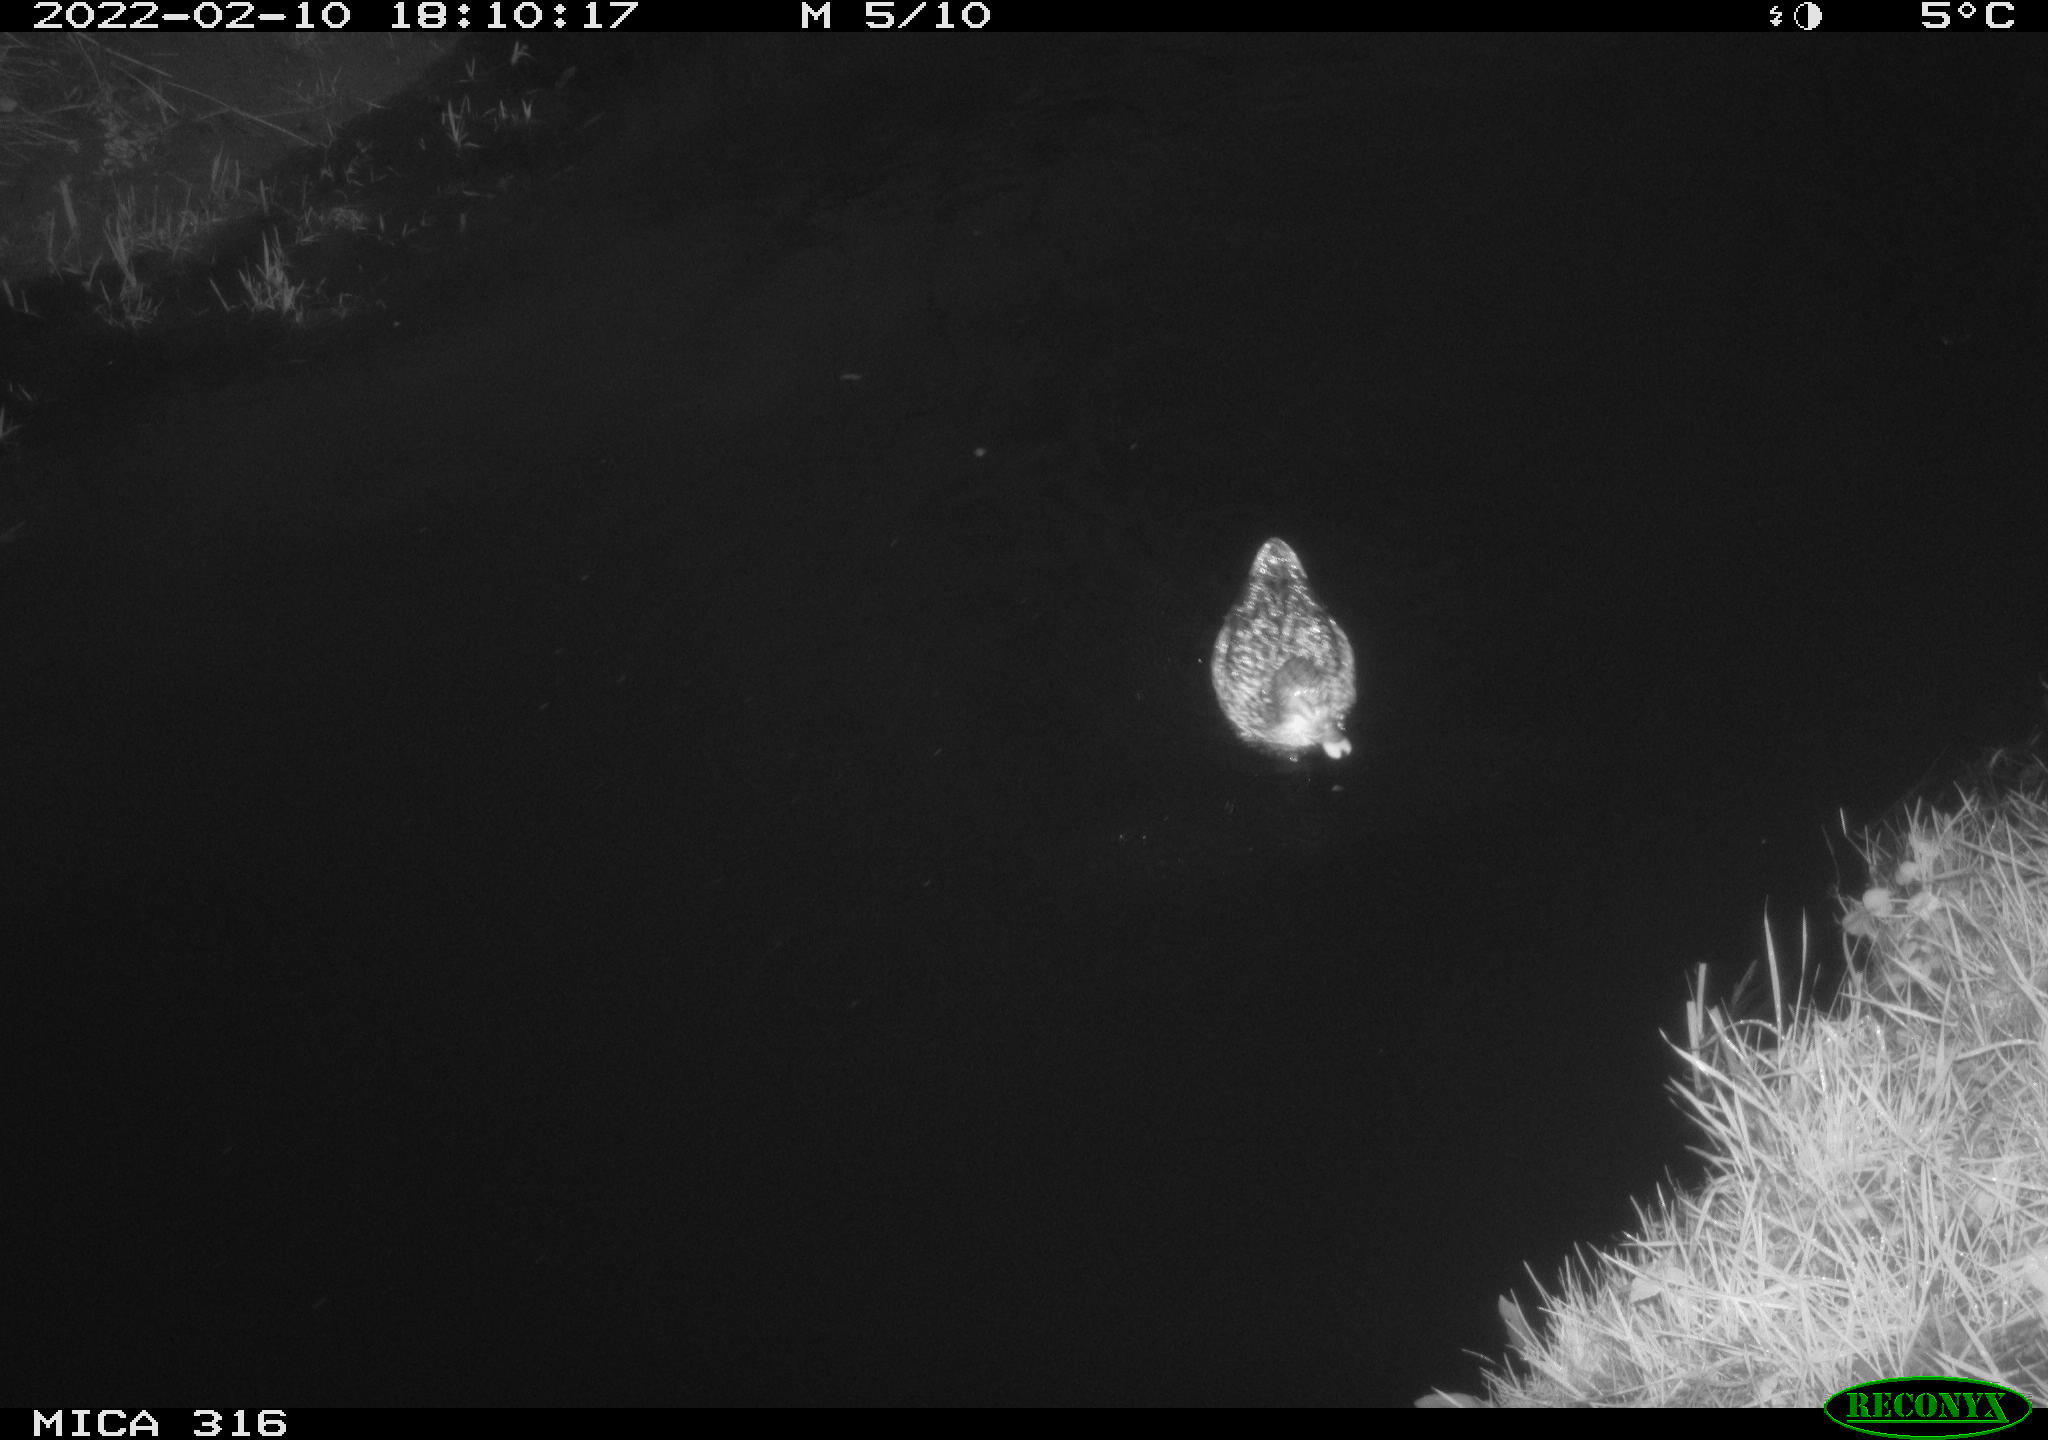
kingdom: Animalia
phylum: Chordata
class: Aves
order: Anseriformes
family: Anatidae
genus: Anas
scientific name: Anas platyrhynchos
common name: Mallard
